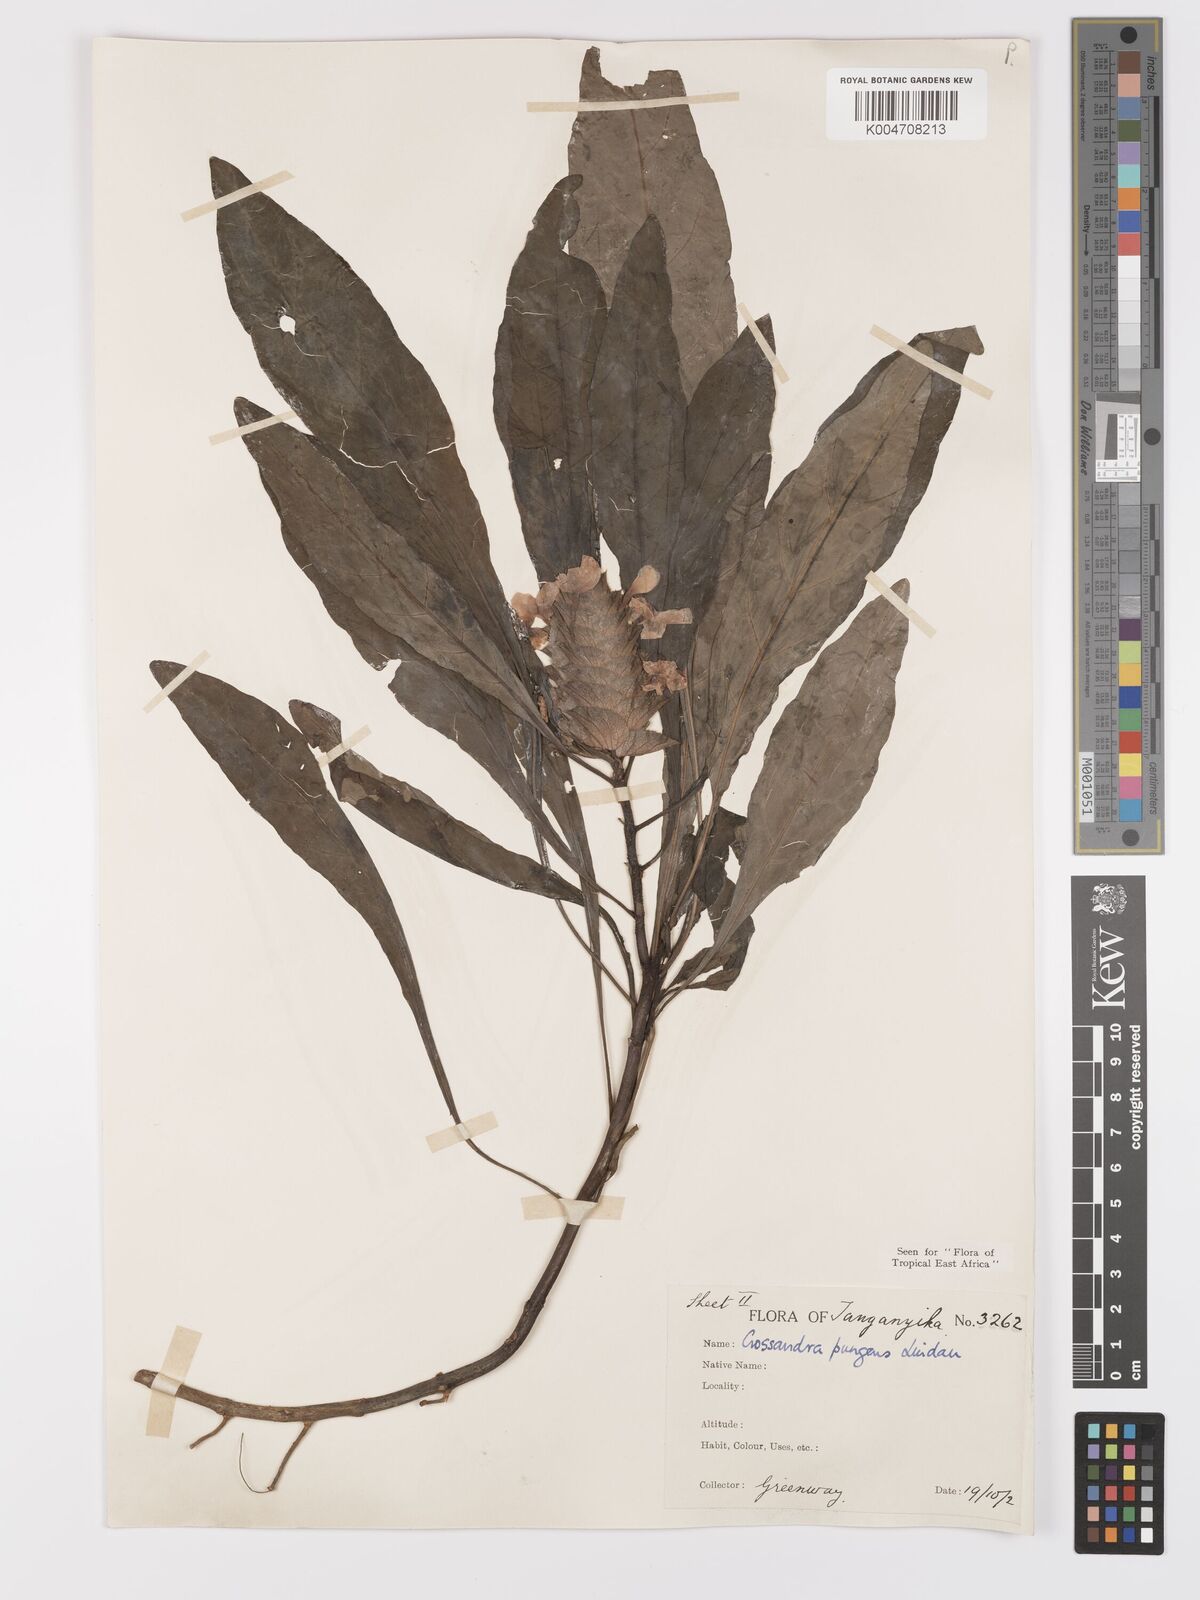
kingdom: Plantae
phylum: Tracheophyta
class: Magnoliopsida
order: Lamiales
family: Acanthaceae
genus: Crossandra
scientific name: Crossandra pungens
